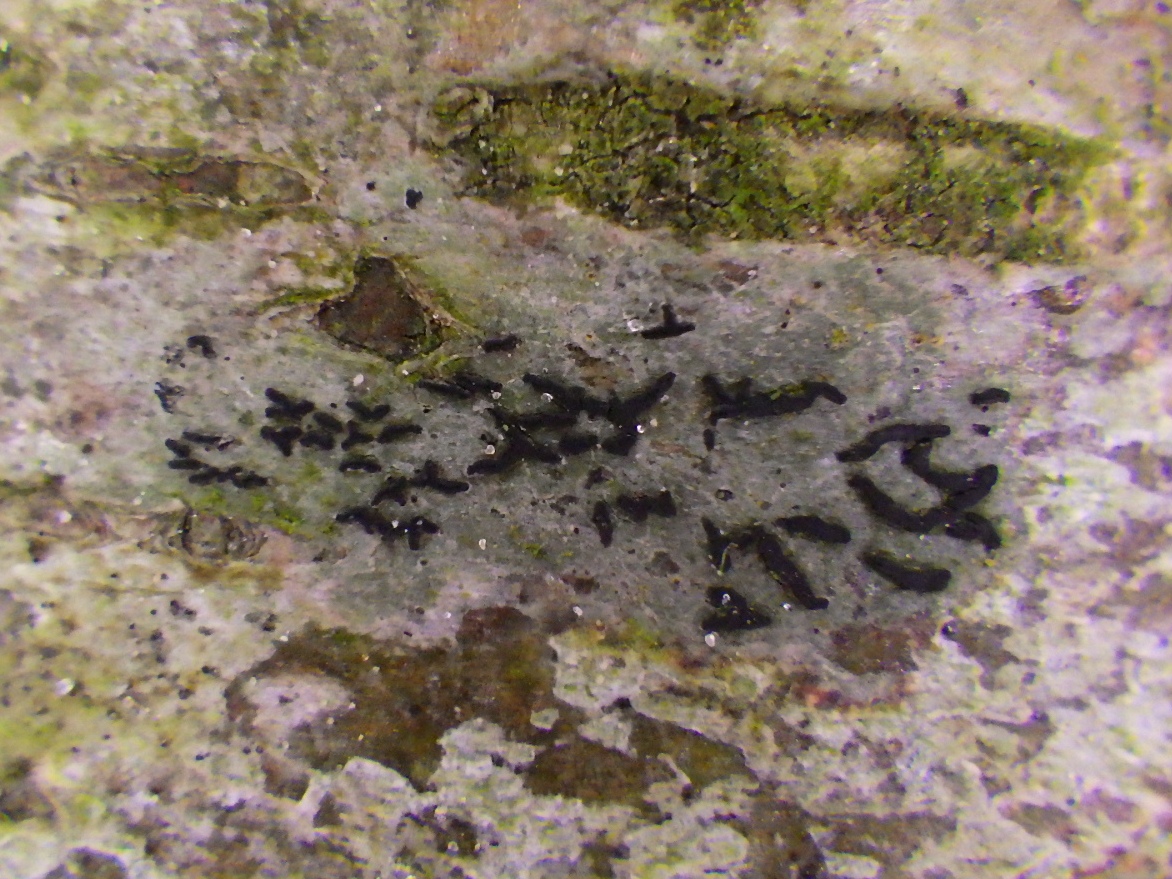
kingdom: Fungi
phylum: Ascomycota
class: Arthoniomycetes
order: Arthoniales
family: Arthoniaceae
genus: Arthonia
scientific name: Arthonia atra
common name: sort bogstavlav
